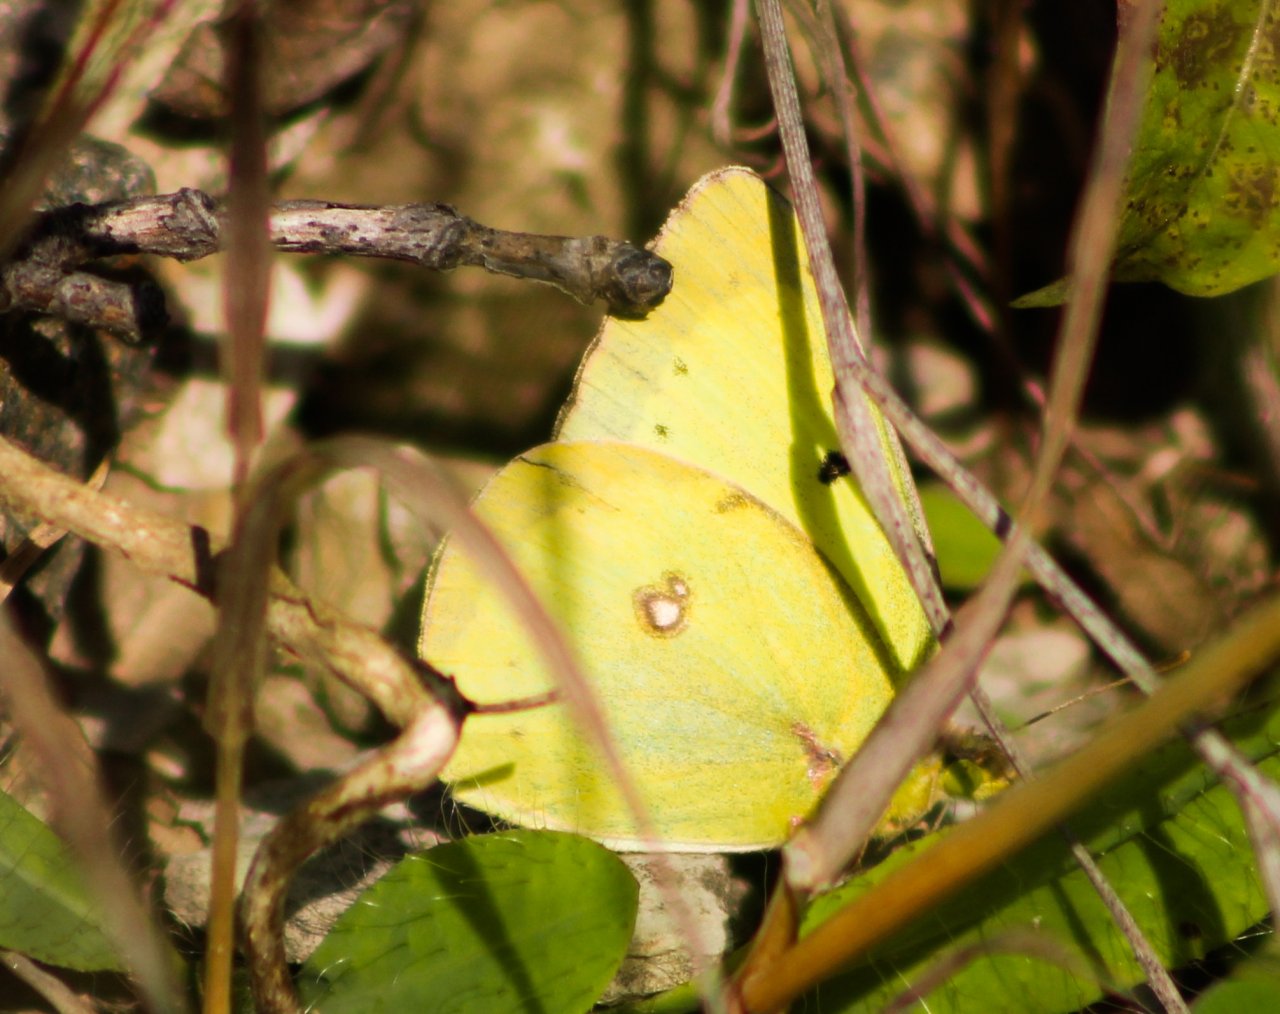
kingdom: Animalia
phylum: Arthropoda
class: Insecta
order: Lepidoptera
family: Pieridae
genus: Colias
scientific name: Colias philodice
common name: Clouded Sulphur
